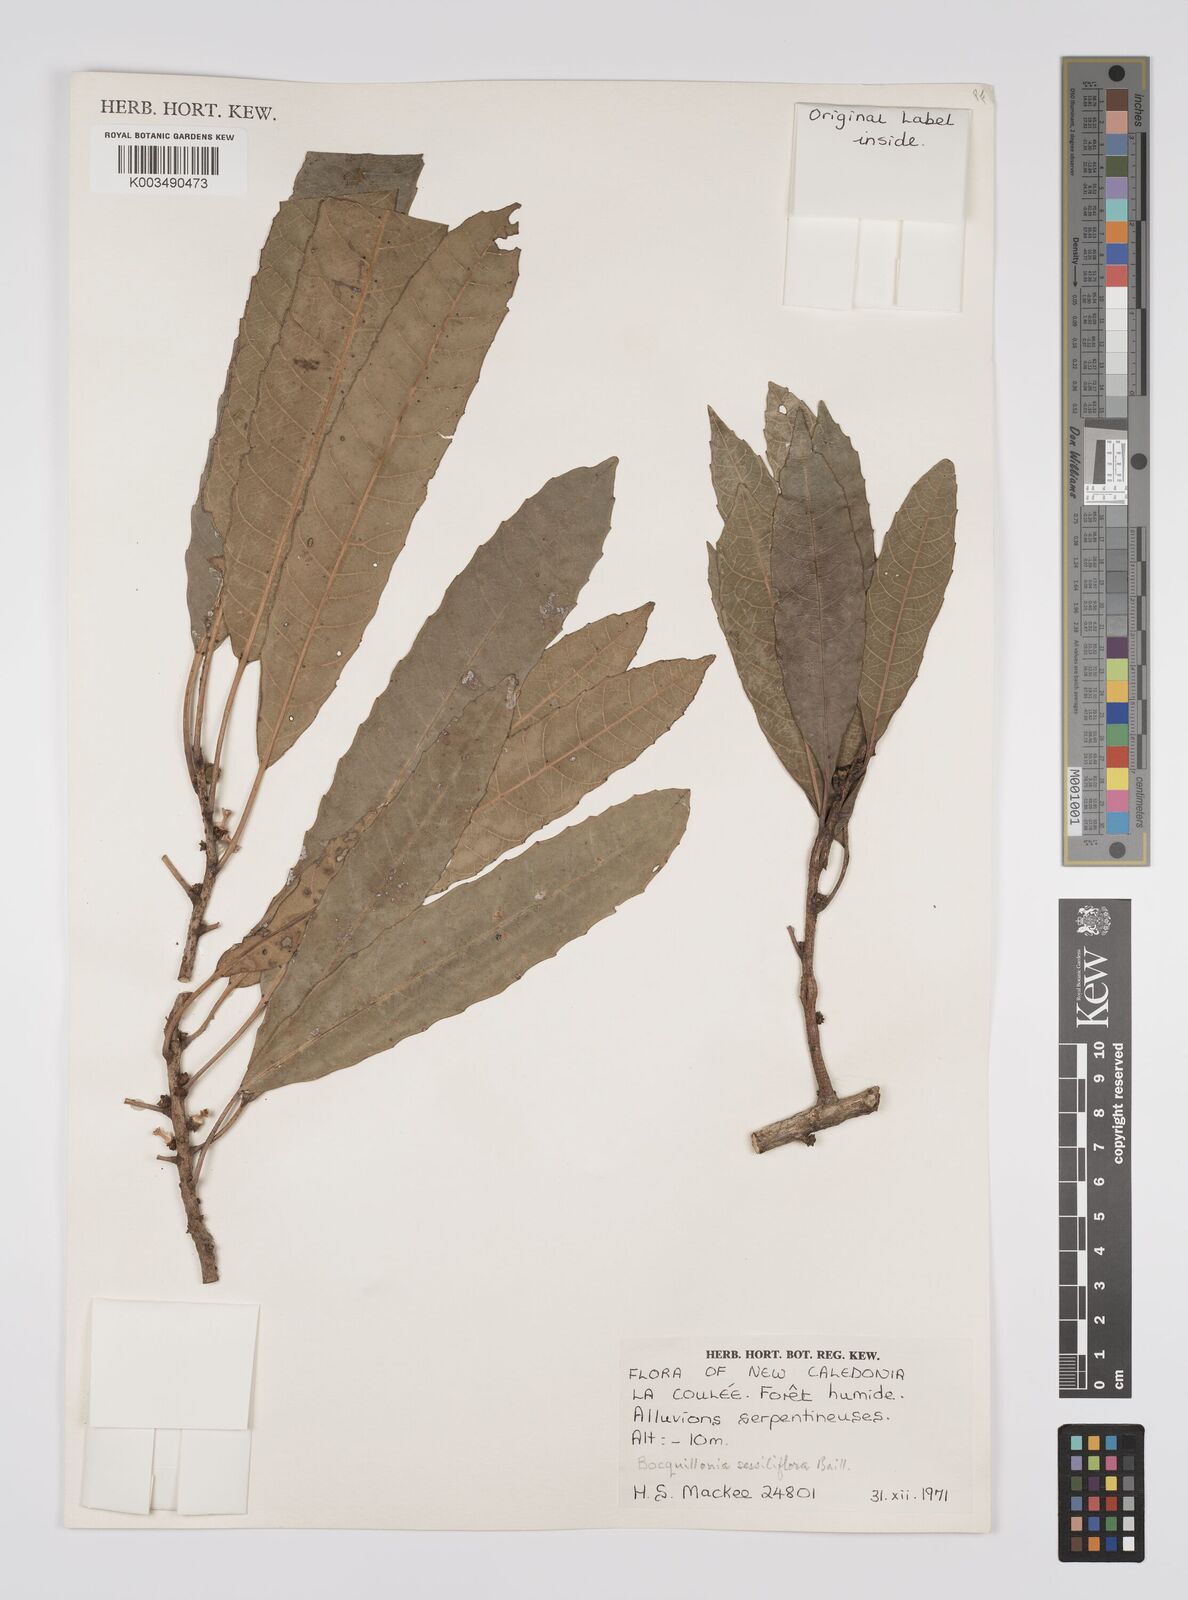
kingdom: Plantae
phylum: Tracheophyta
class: Magnoliopsida
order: Malpighiales
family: Euphorbiaceae
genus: Bocquillonia
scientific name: Bocquillonia sessiliflora
